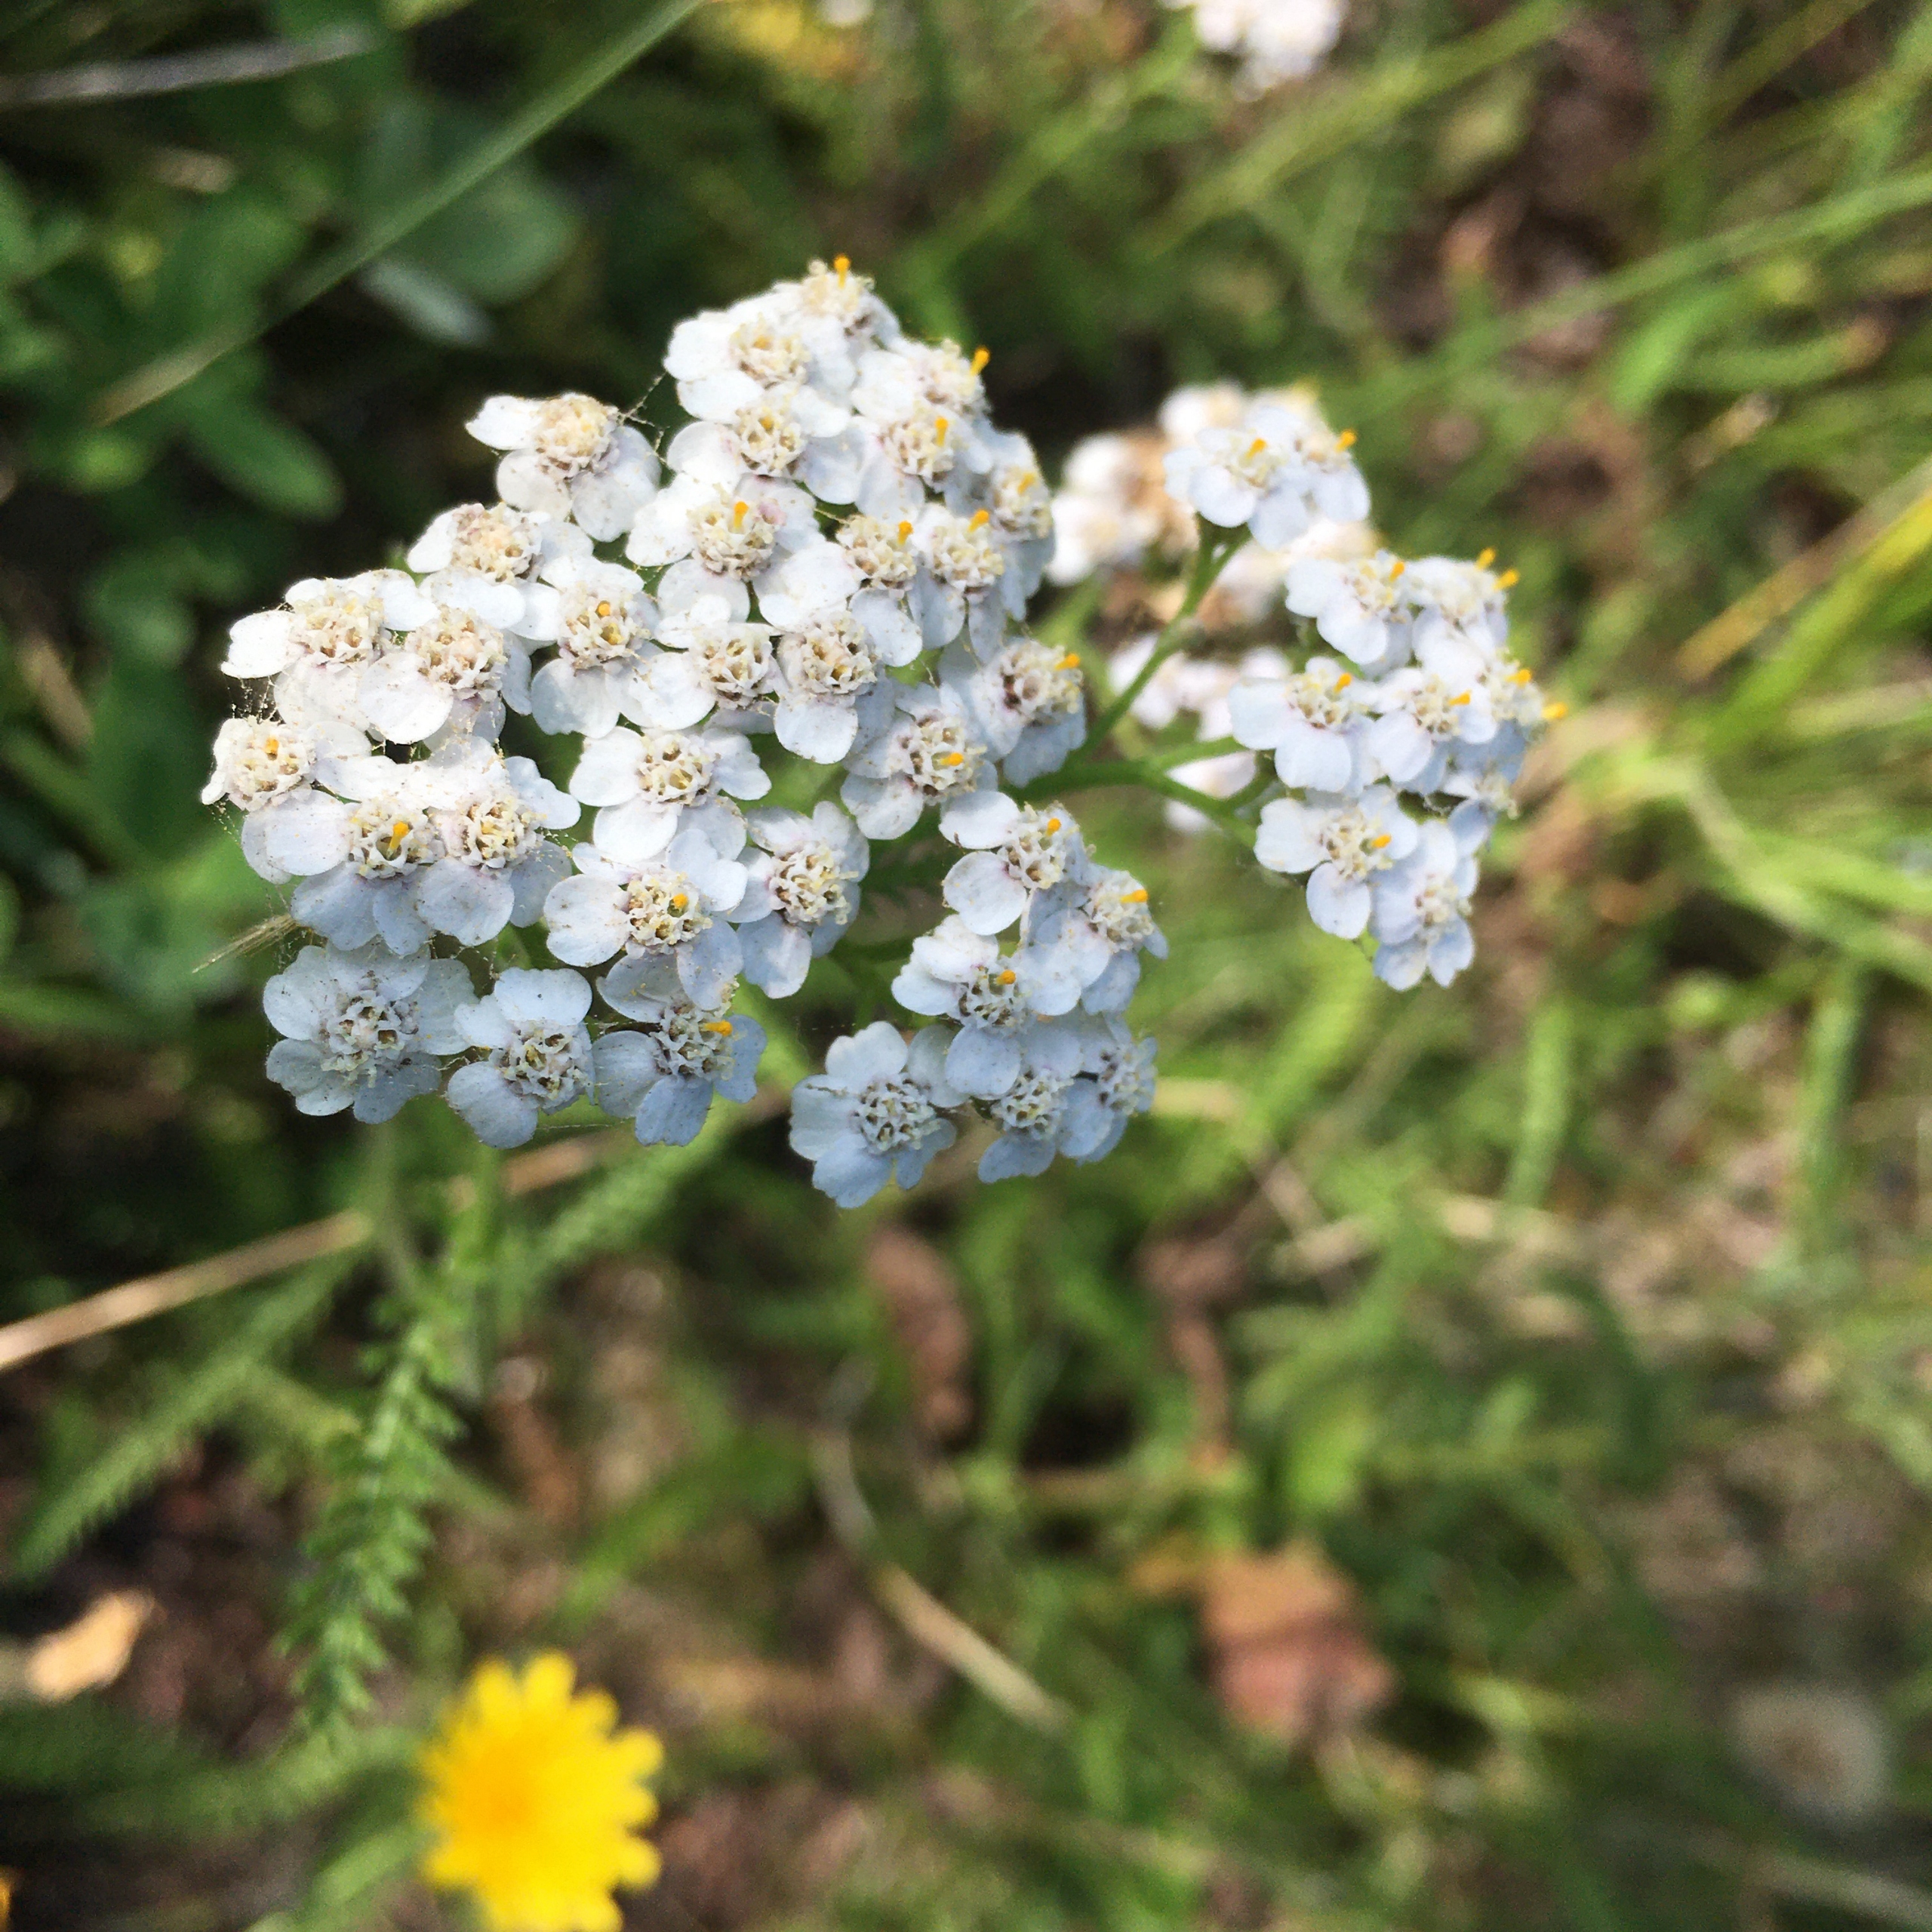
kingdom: Plantae
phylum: Tracheophyta
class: Magnoliopsida
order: Asterales
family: Asteraceae
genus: Achillea
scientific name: Achillea millefolium
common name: Almindelig røllike
